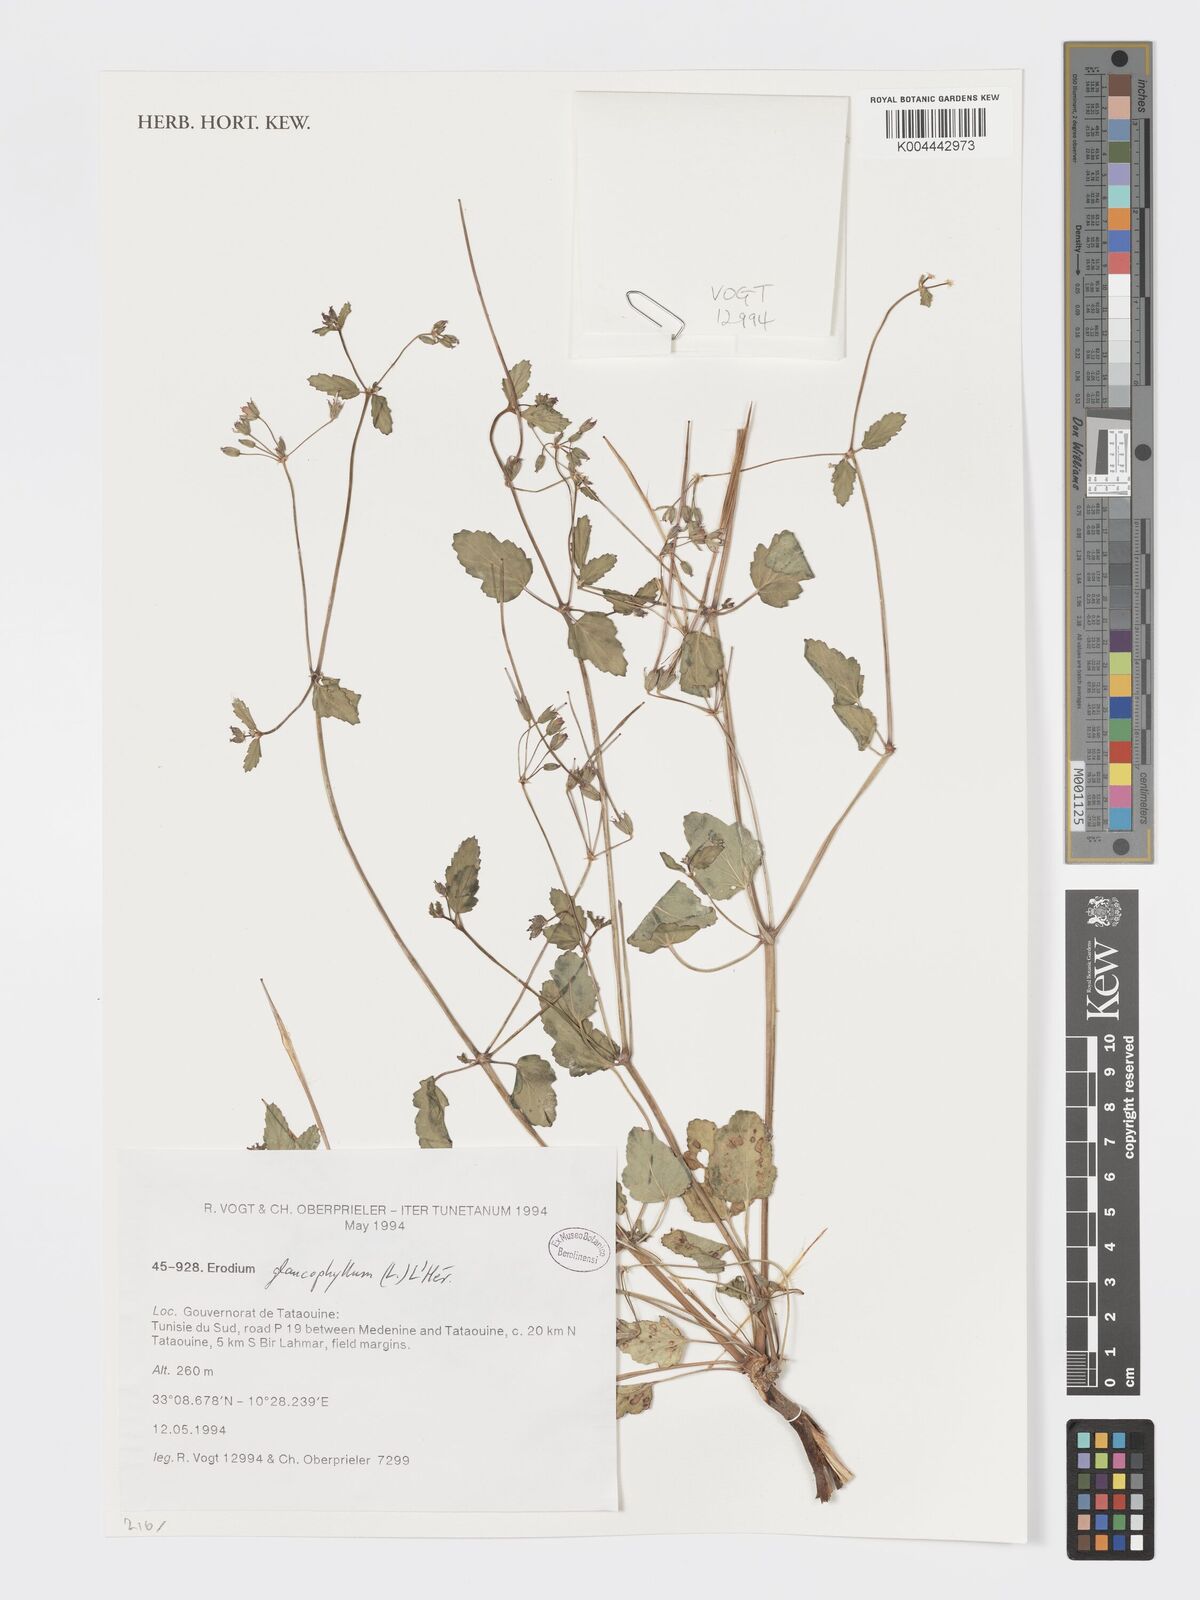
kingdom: Plantae
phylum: Tracheophyta
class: Magnoliopsida
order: Geraniales
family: Geraniaceae
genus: Erodium
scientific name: Erodium glaucophyllum
